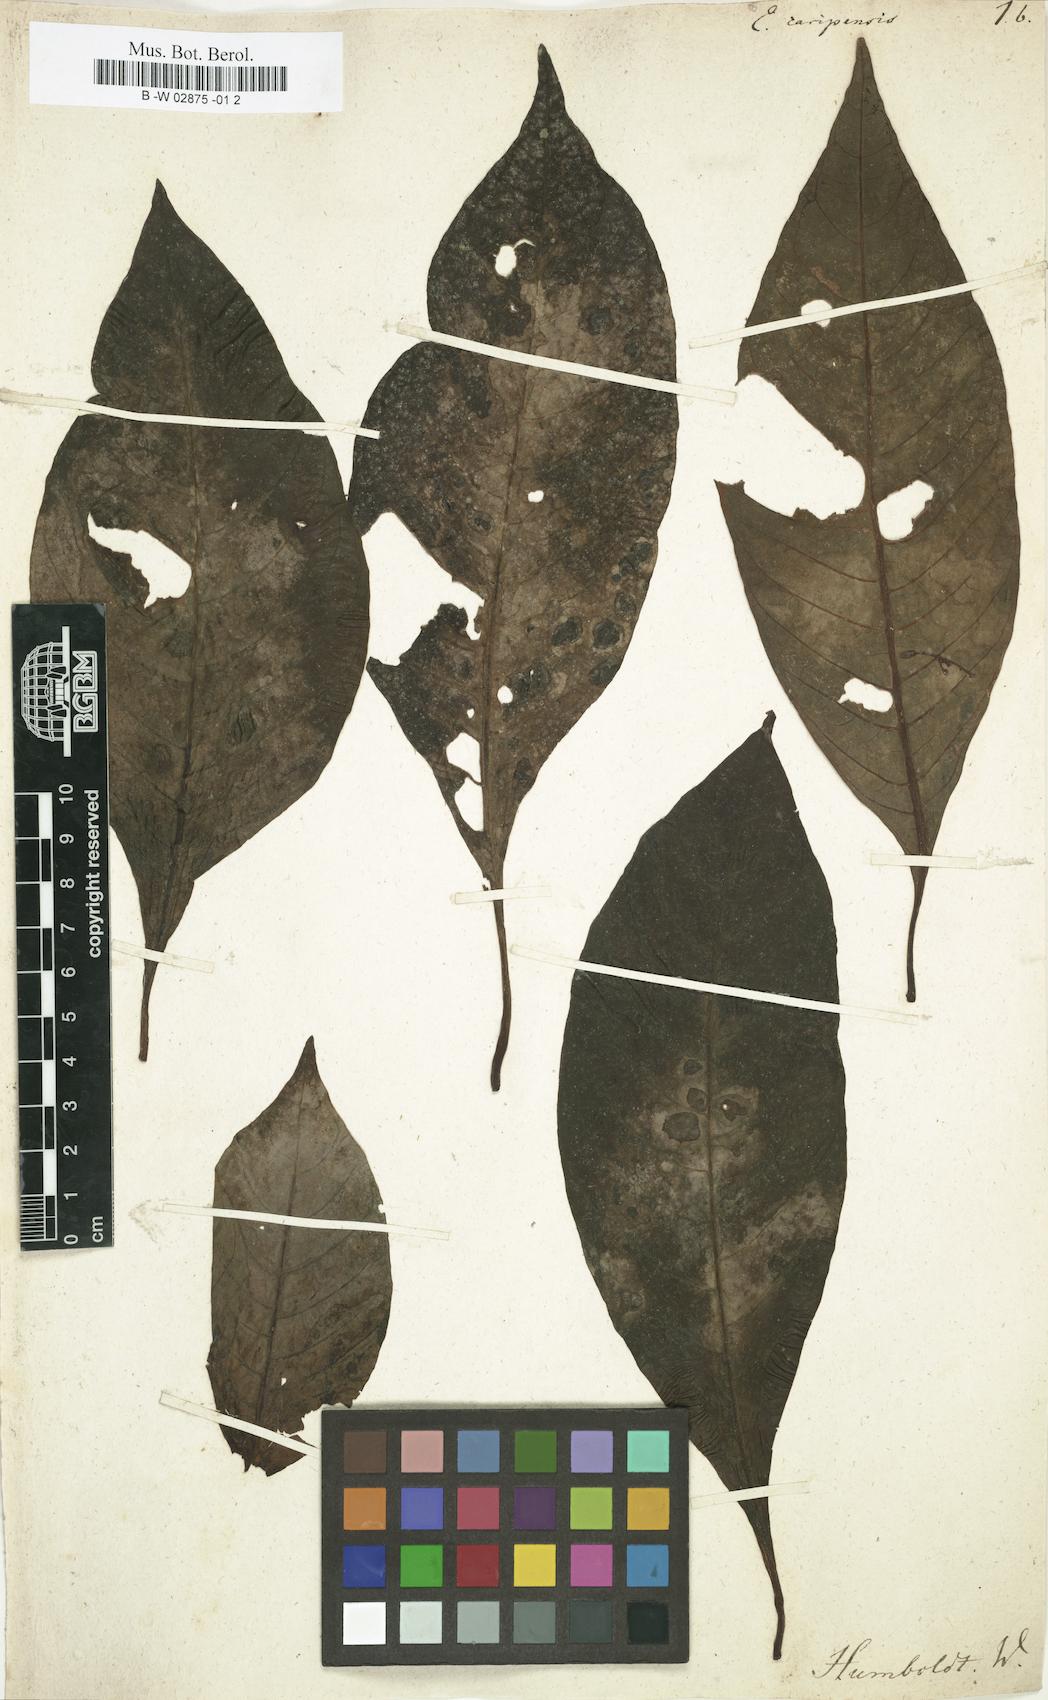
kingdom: Plantae
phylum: Tracheophyta
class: Magnoliopsida
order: Gentianales
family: Rubiaceae
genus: Hoffmannia
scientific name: Hoffmannia Euosmia caripensis
